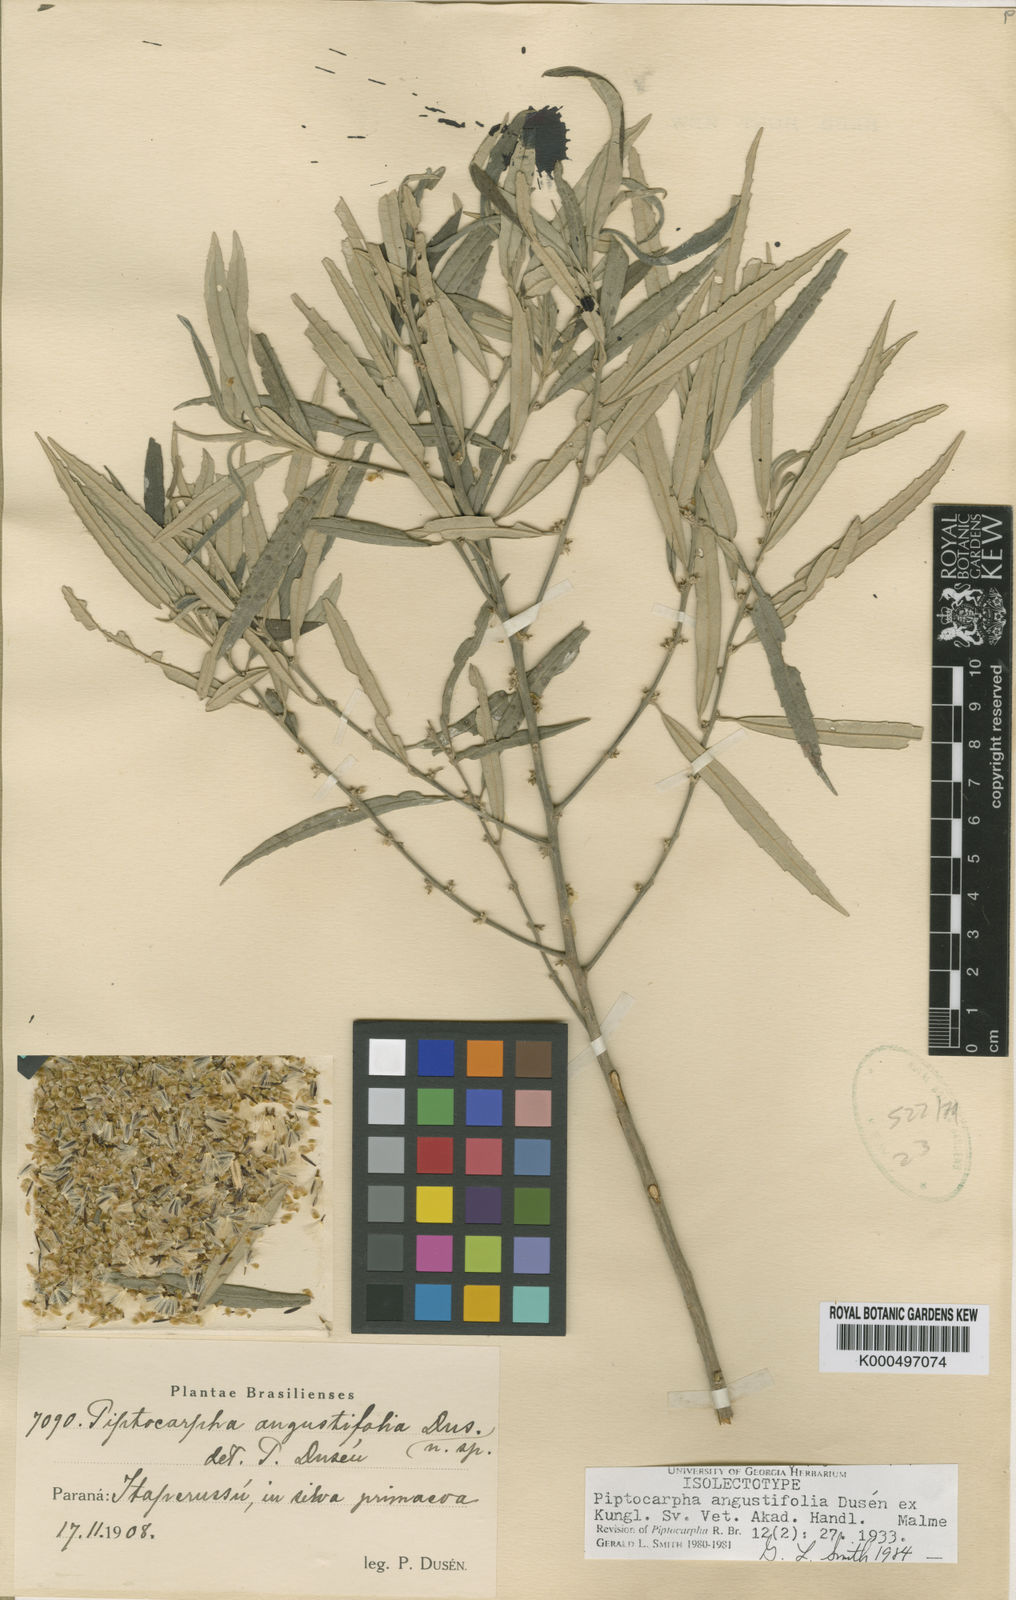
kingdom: Plantae
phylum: Tracheophyta
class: Magnoliopsida
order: Asterales
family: Asteraceae
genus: Piptocarpha
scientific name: Piptocarpha
